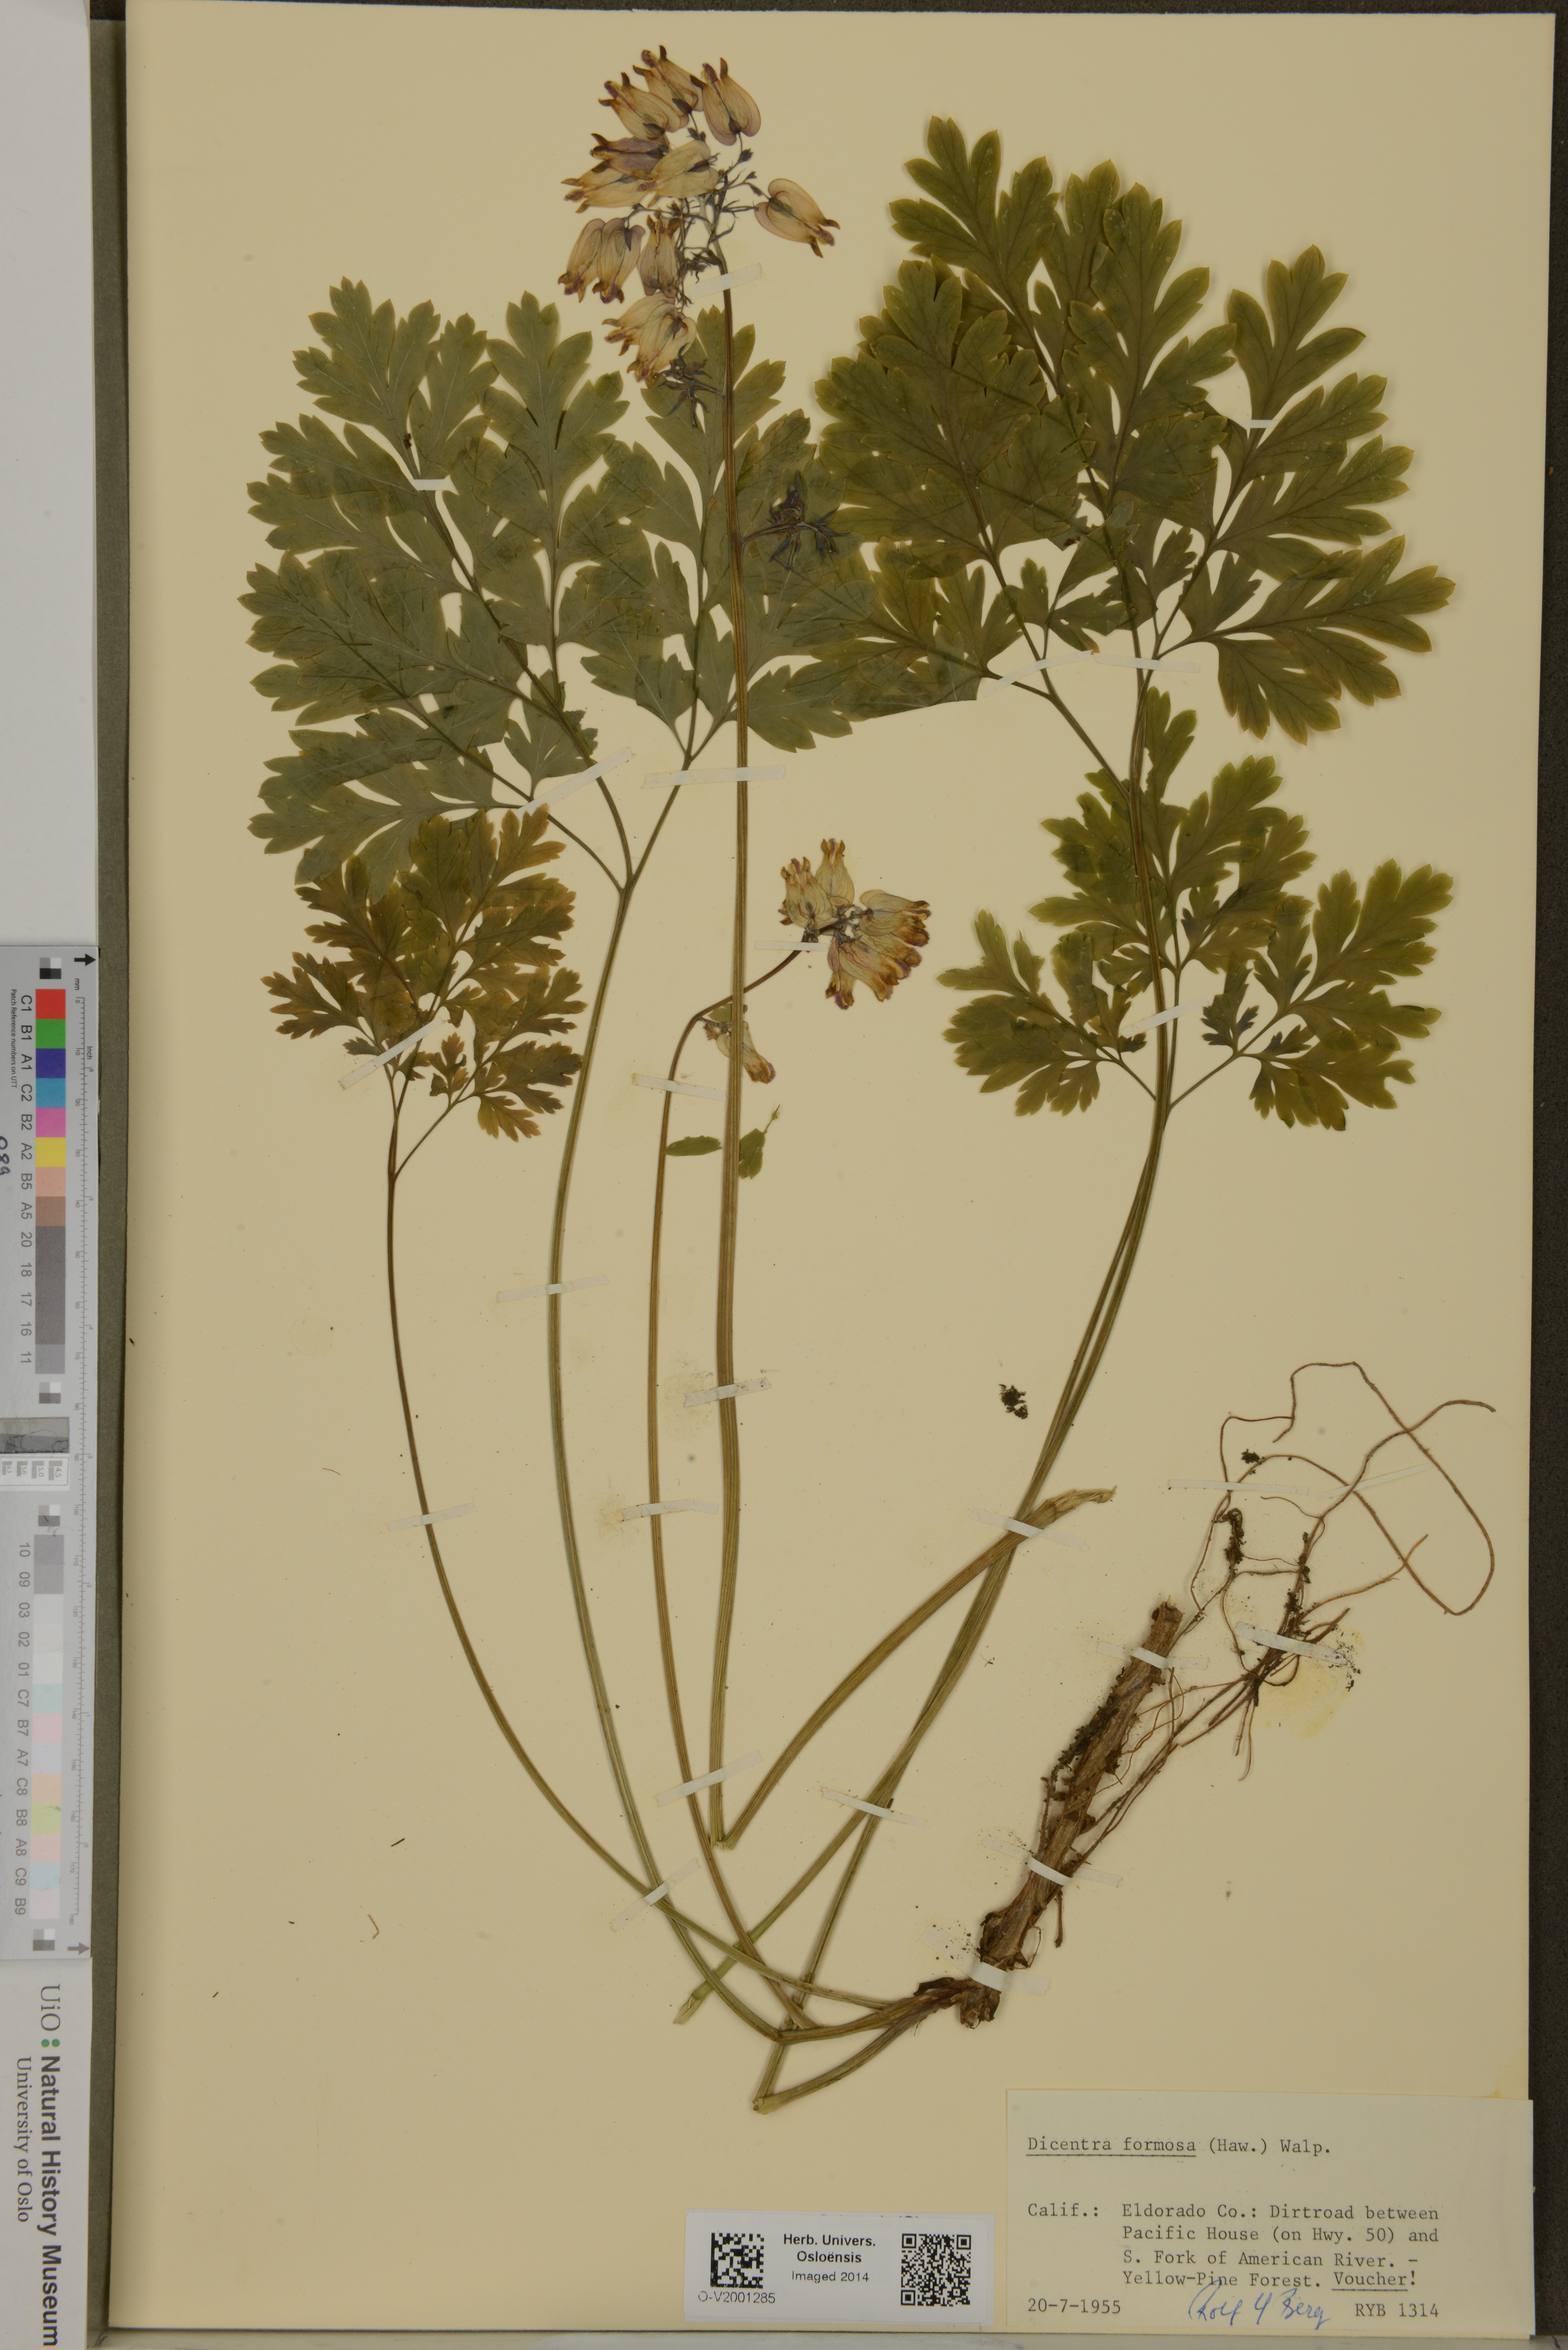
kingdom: Plantae
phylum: Tracheophyta
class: Magnoliopsida
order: Ranunculales
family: Papaveraceae
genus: Dicentra
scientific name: Dicentra formosa
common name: Bleeding-heart
